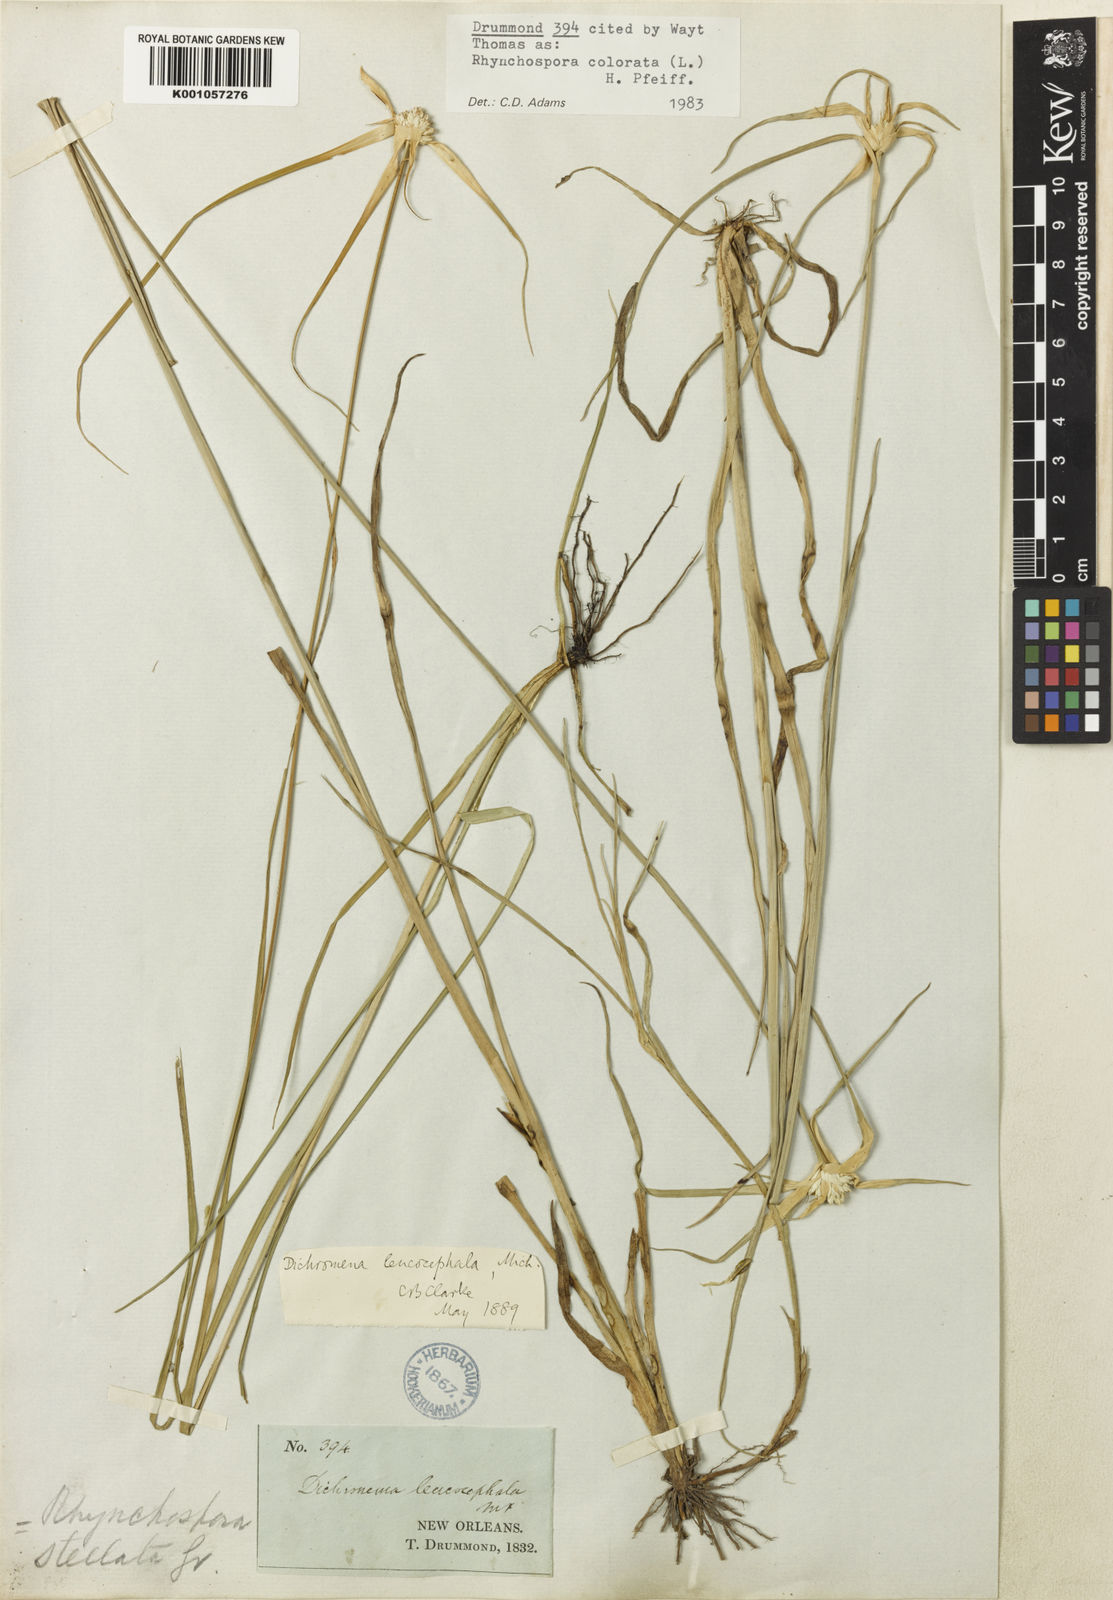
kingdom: Plantae
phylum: Tracheophyta
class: Liliopsida
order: Poales
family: Cyperaceae
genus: Rhynchospora
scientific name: Rhynchospora colorata
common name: Star sedge
